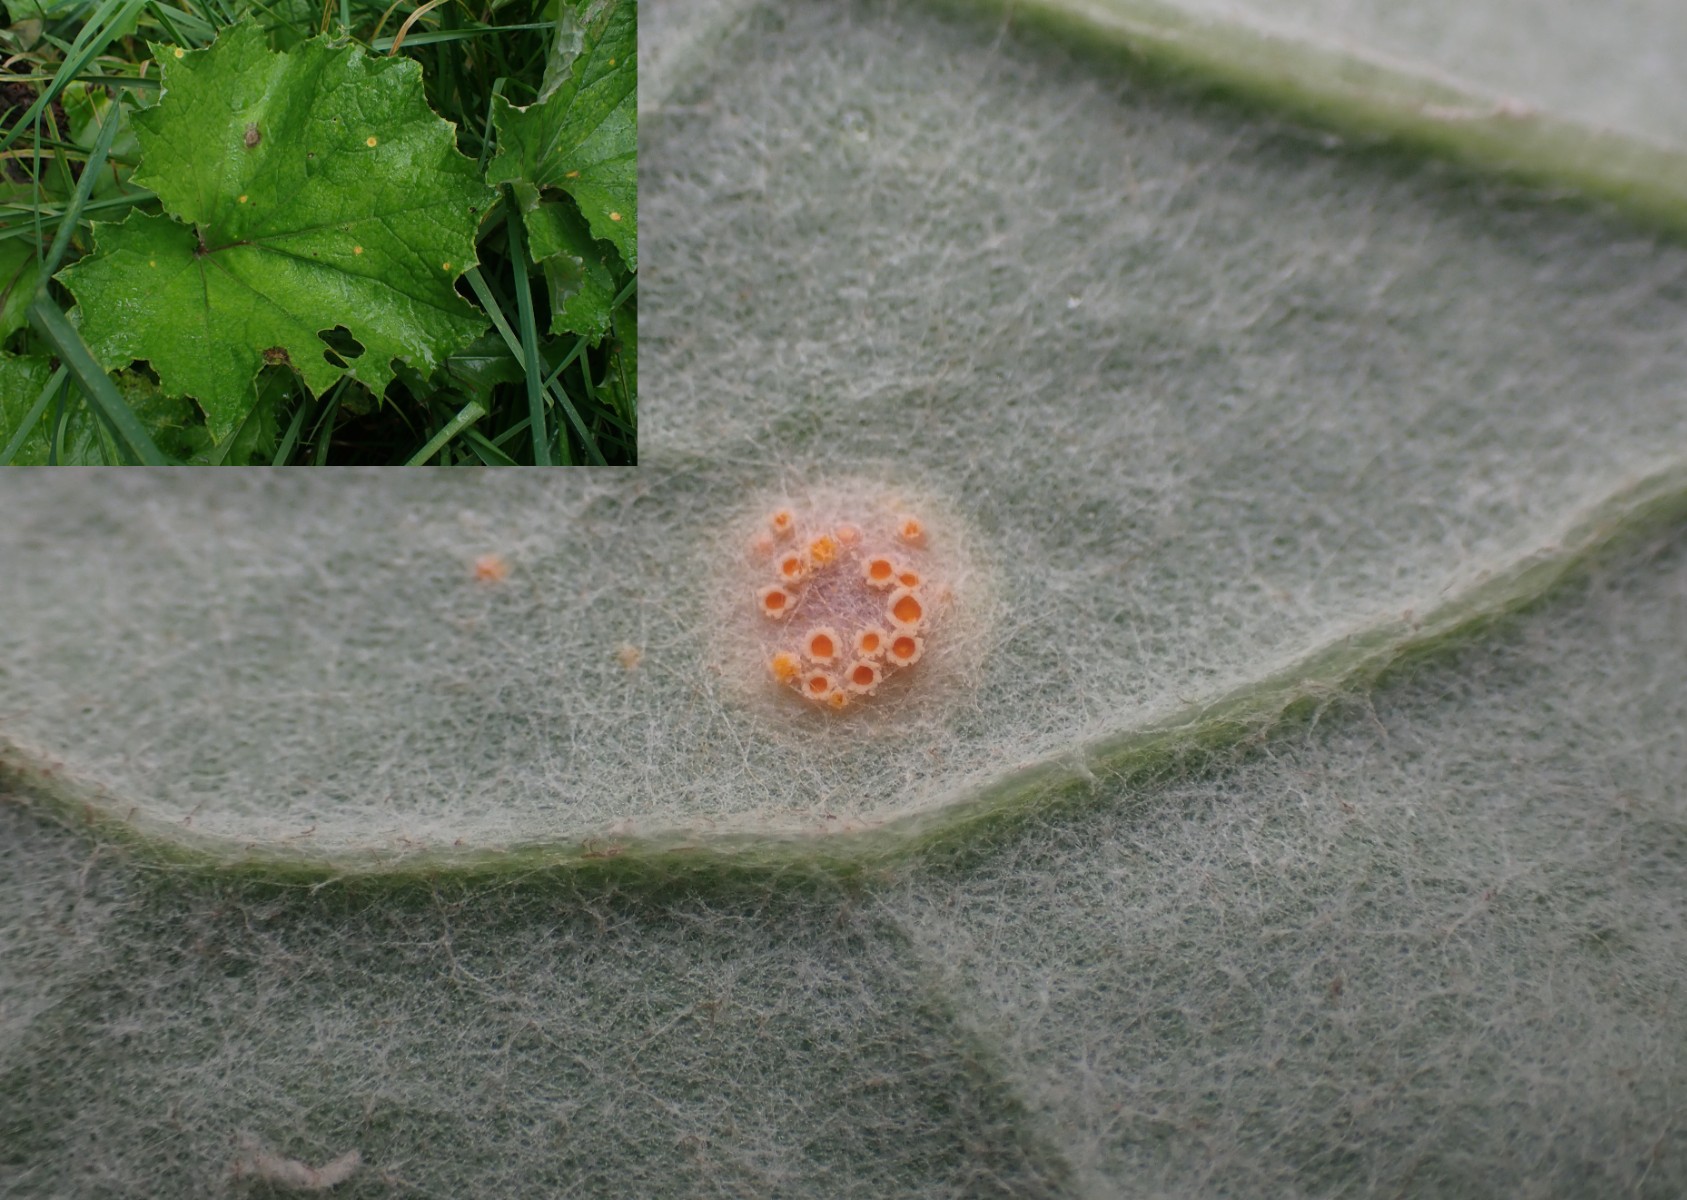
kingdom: Fungi
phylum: Basidiomycota
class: Pucciniomycetes
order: Pucciniales
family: Pucciniaceae
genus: Puccinia
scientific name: Puccinia poarum
